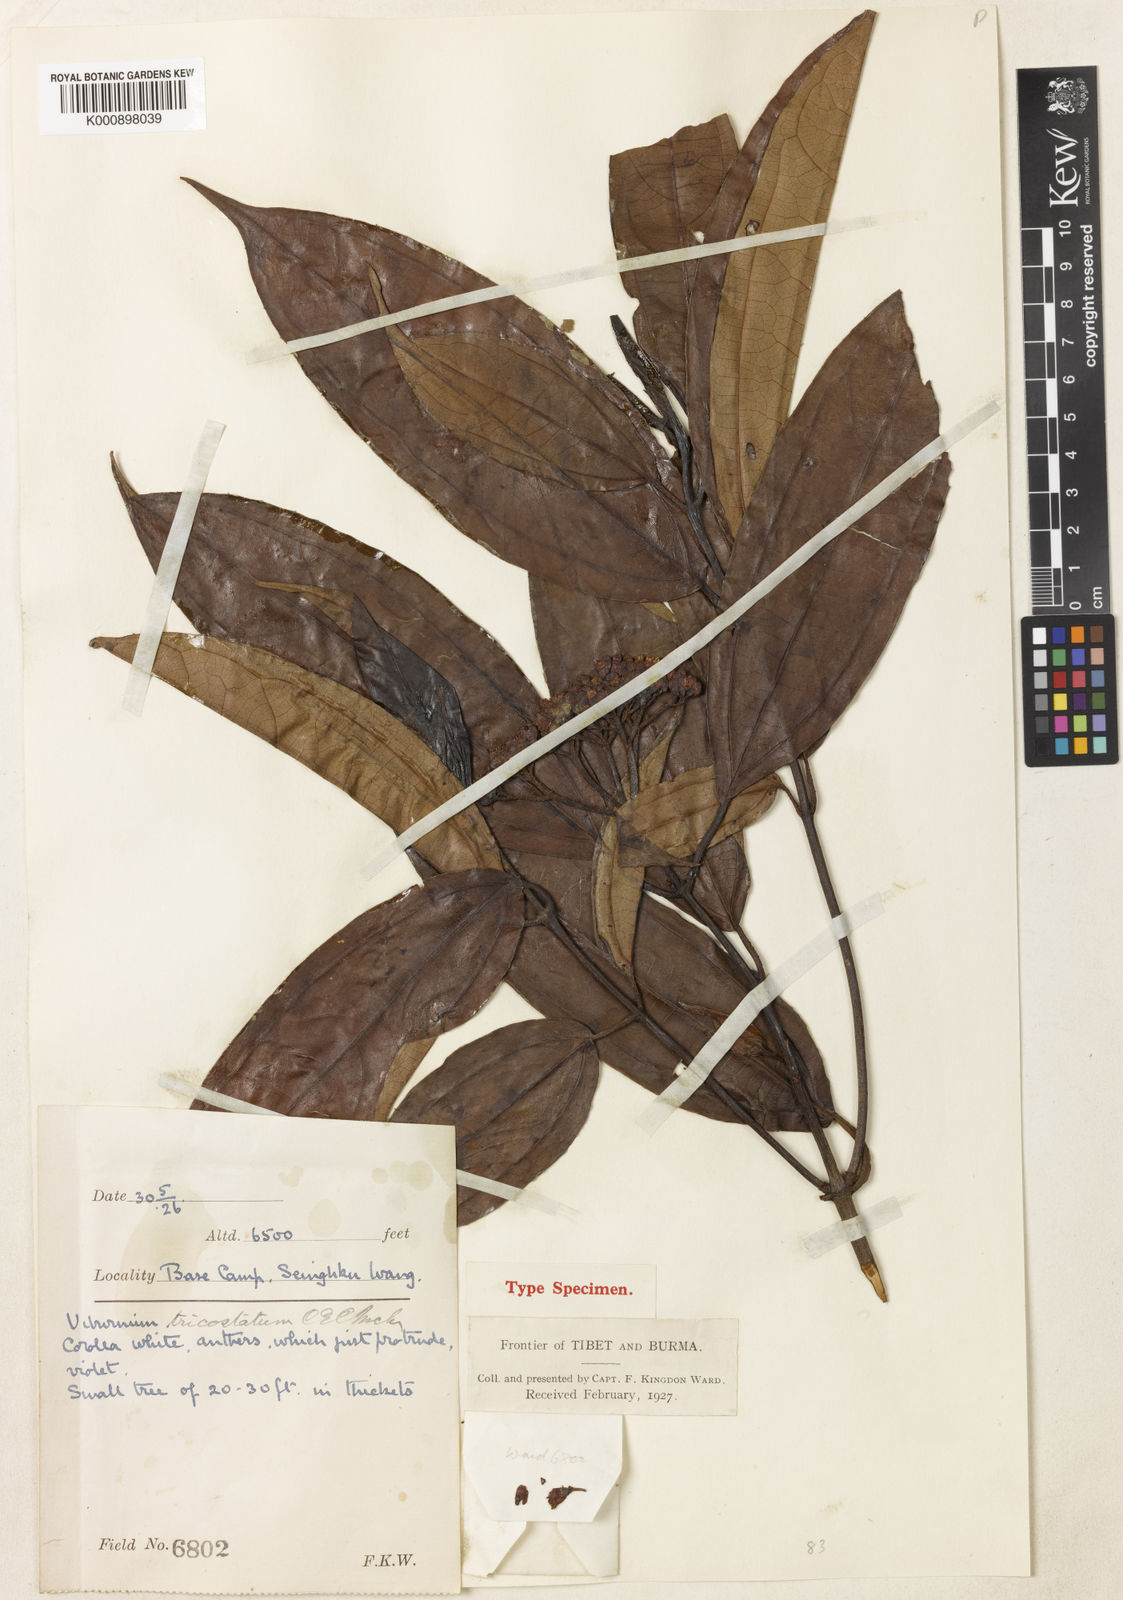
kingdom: Plantae
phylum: Tracheophyta
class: Magnoliopsida
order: Dipsacales
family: Viburnaceae
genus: Viburnum
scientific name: Viburnum tricostatum
